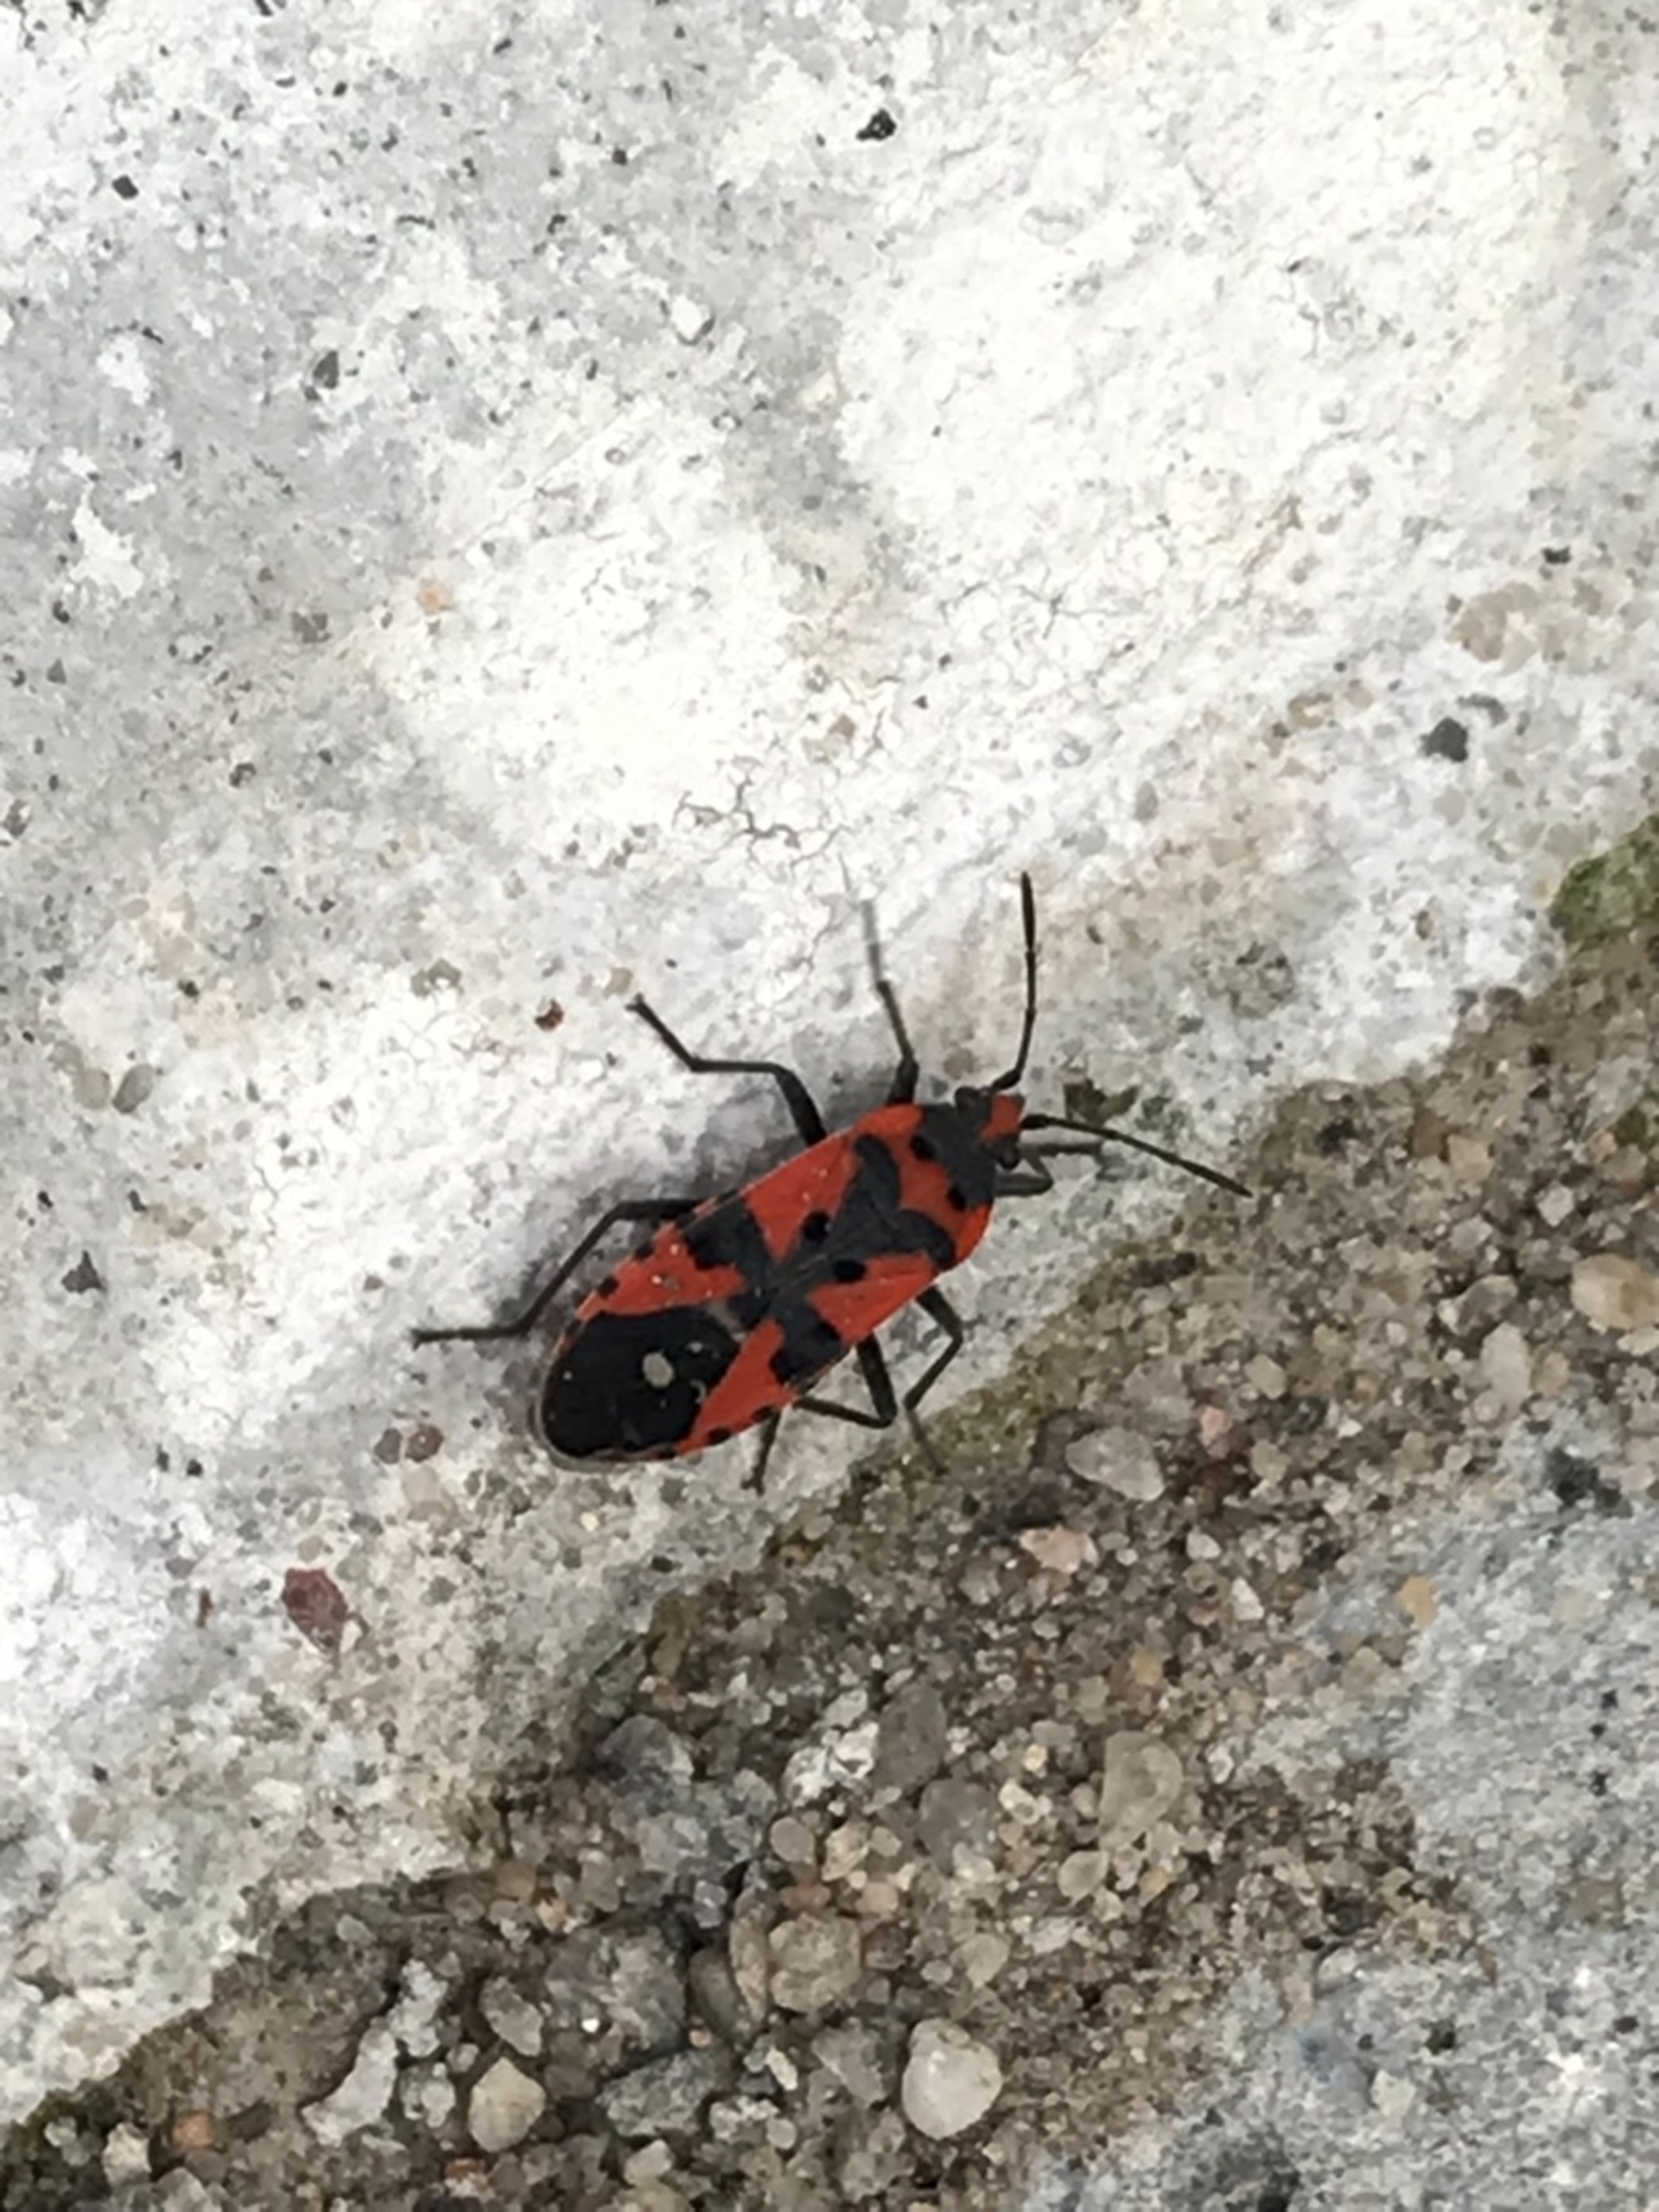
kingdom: Animalia
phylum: Arthropoda
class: Insecta
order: Hemiptera
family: Lygaeidae
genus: Lygaeus
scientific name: Lygaeus equestris
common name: Soldatertæge
